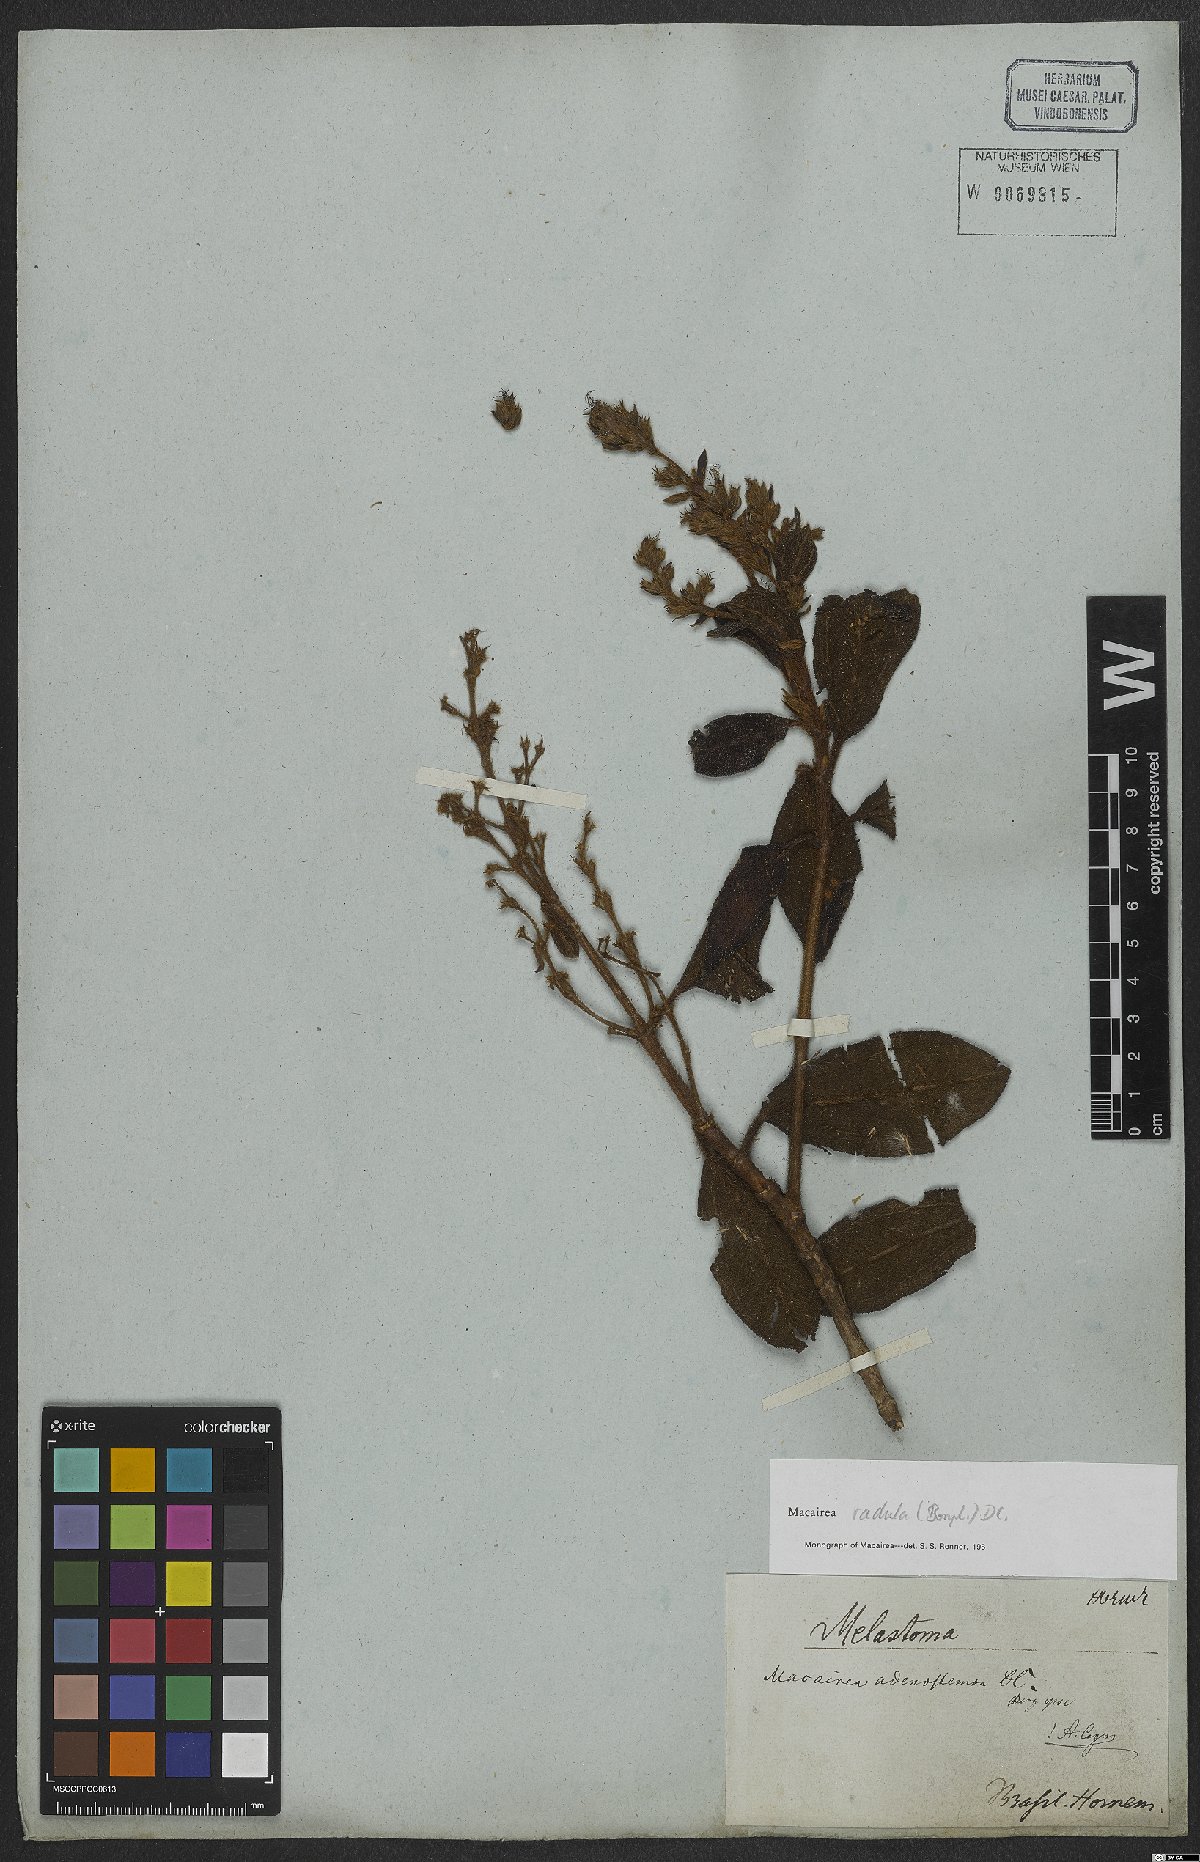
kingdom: Plantae
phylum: Tracheophyta
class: Magnoliopsida
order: Myrtales
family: Melastomataceae
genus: Macairea
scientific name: Macairea radula
